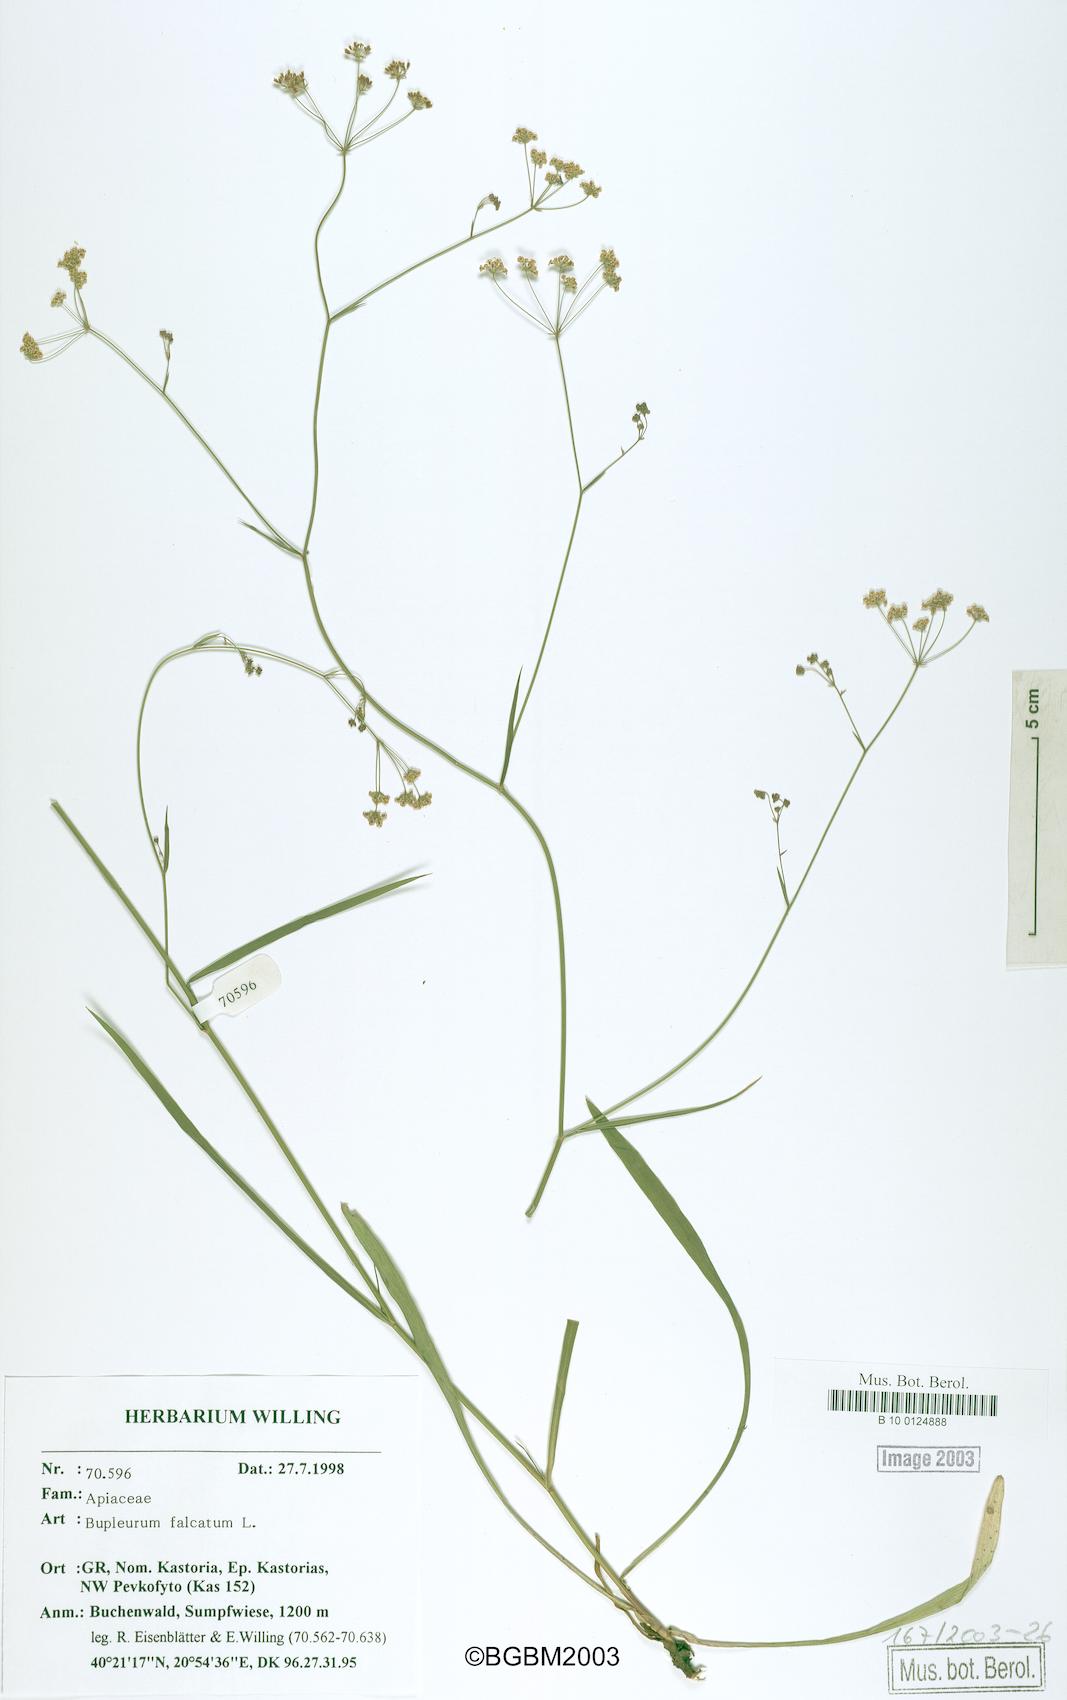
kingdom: Plantae
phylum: Tracheophyta
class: Magnoliopsida
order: Apiales
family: Apiaceae
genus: Bupleurum
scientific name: Bupleurum falcatum
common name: Sickle-leaved hare's-ear
